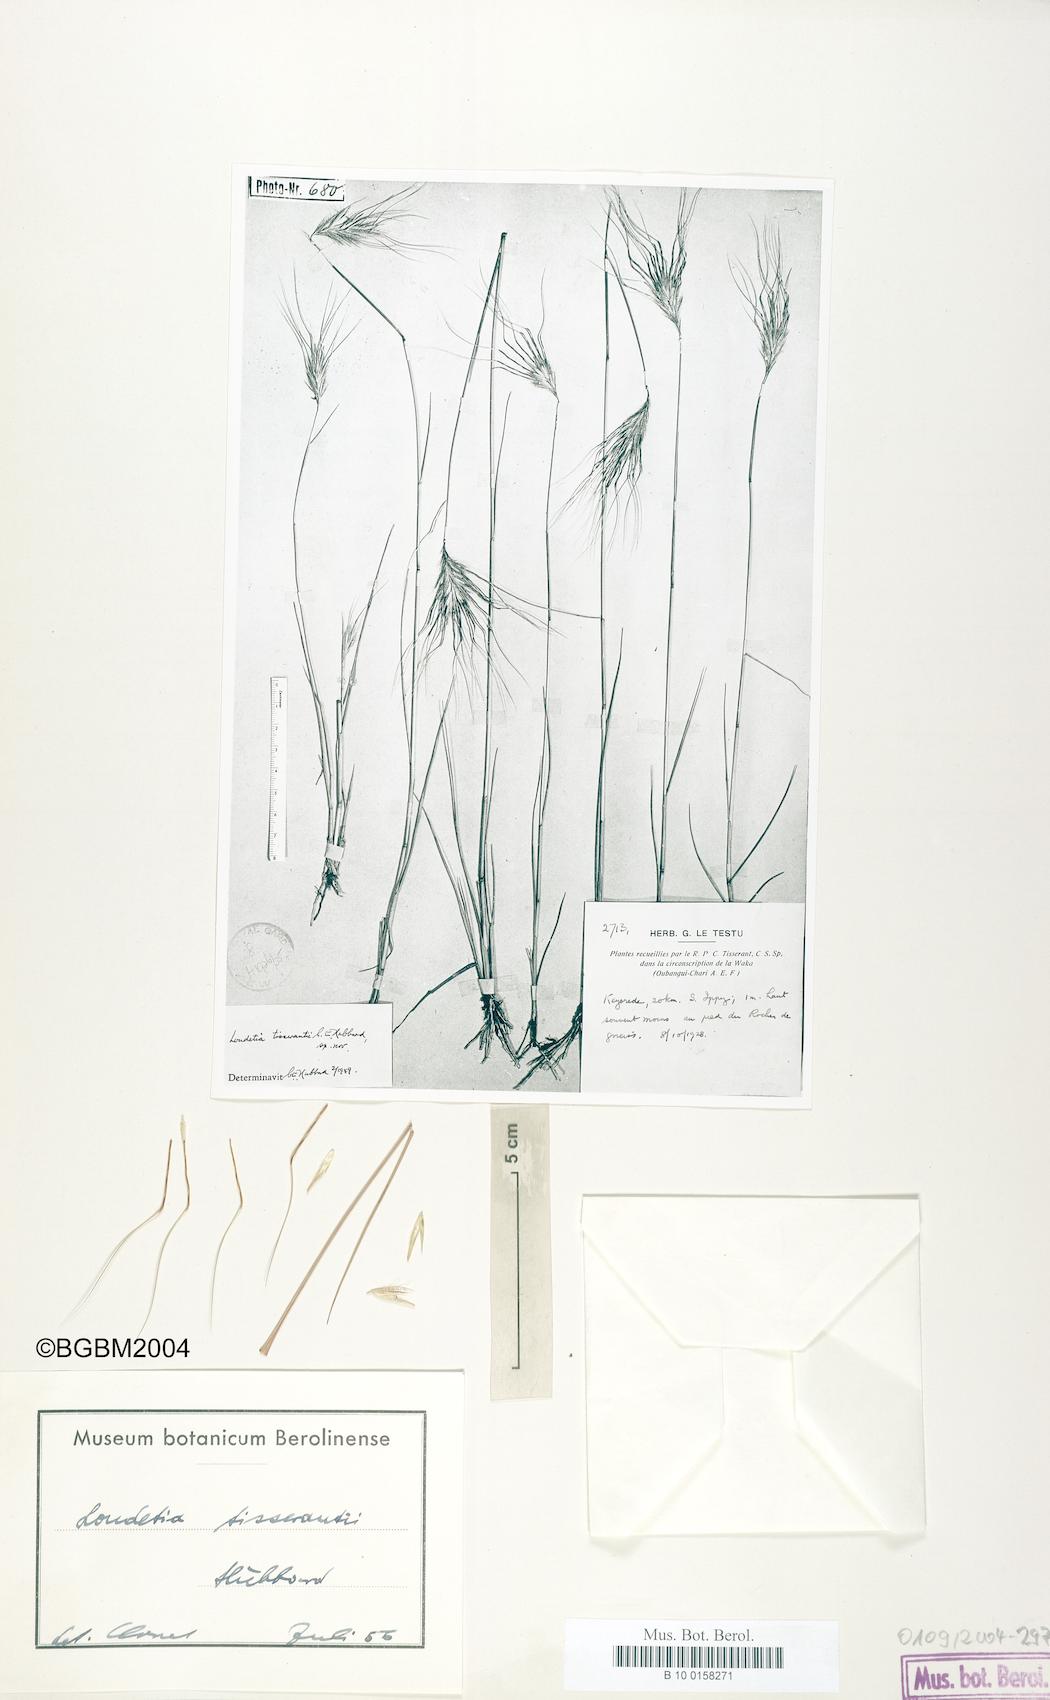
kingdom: Plantae
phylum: Tracheophyta
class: Liliopsida
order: Poales
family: Poaceae
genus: Loudetia
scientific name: Loudetia tisserantii
